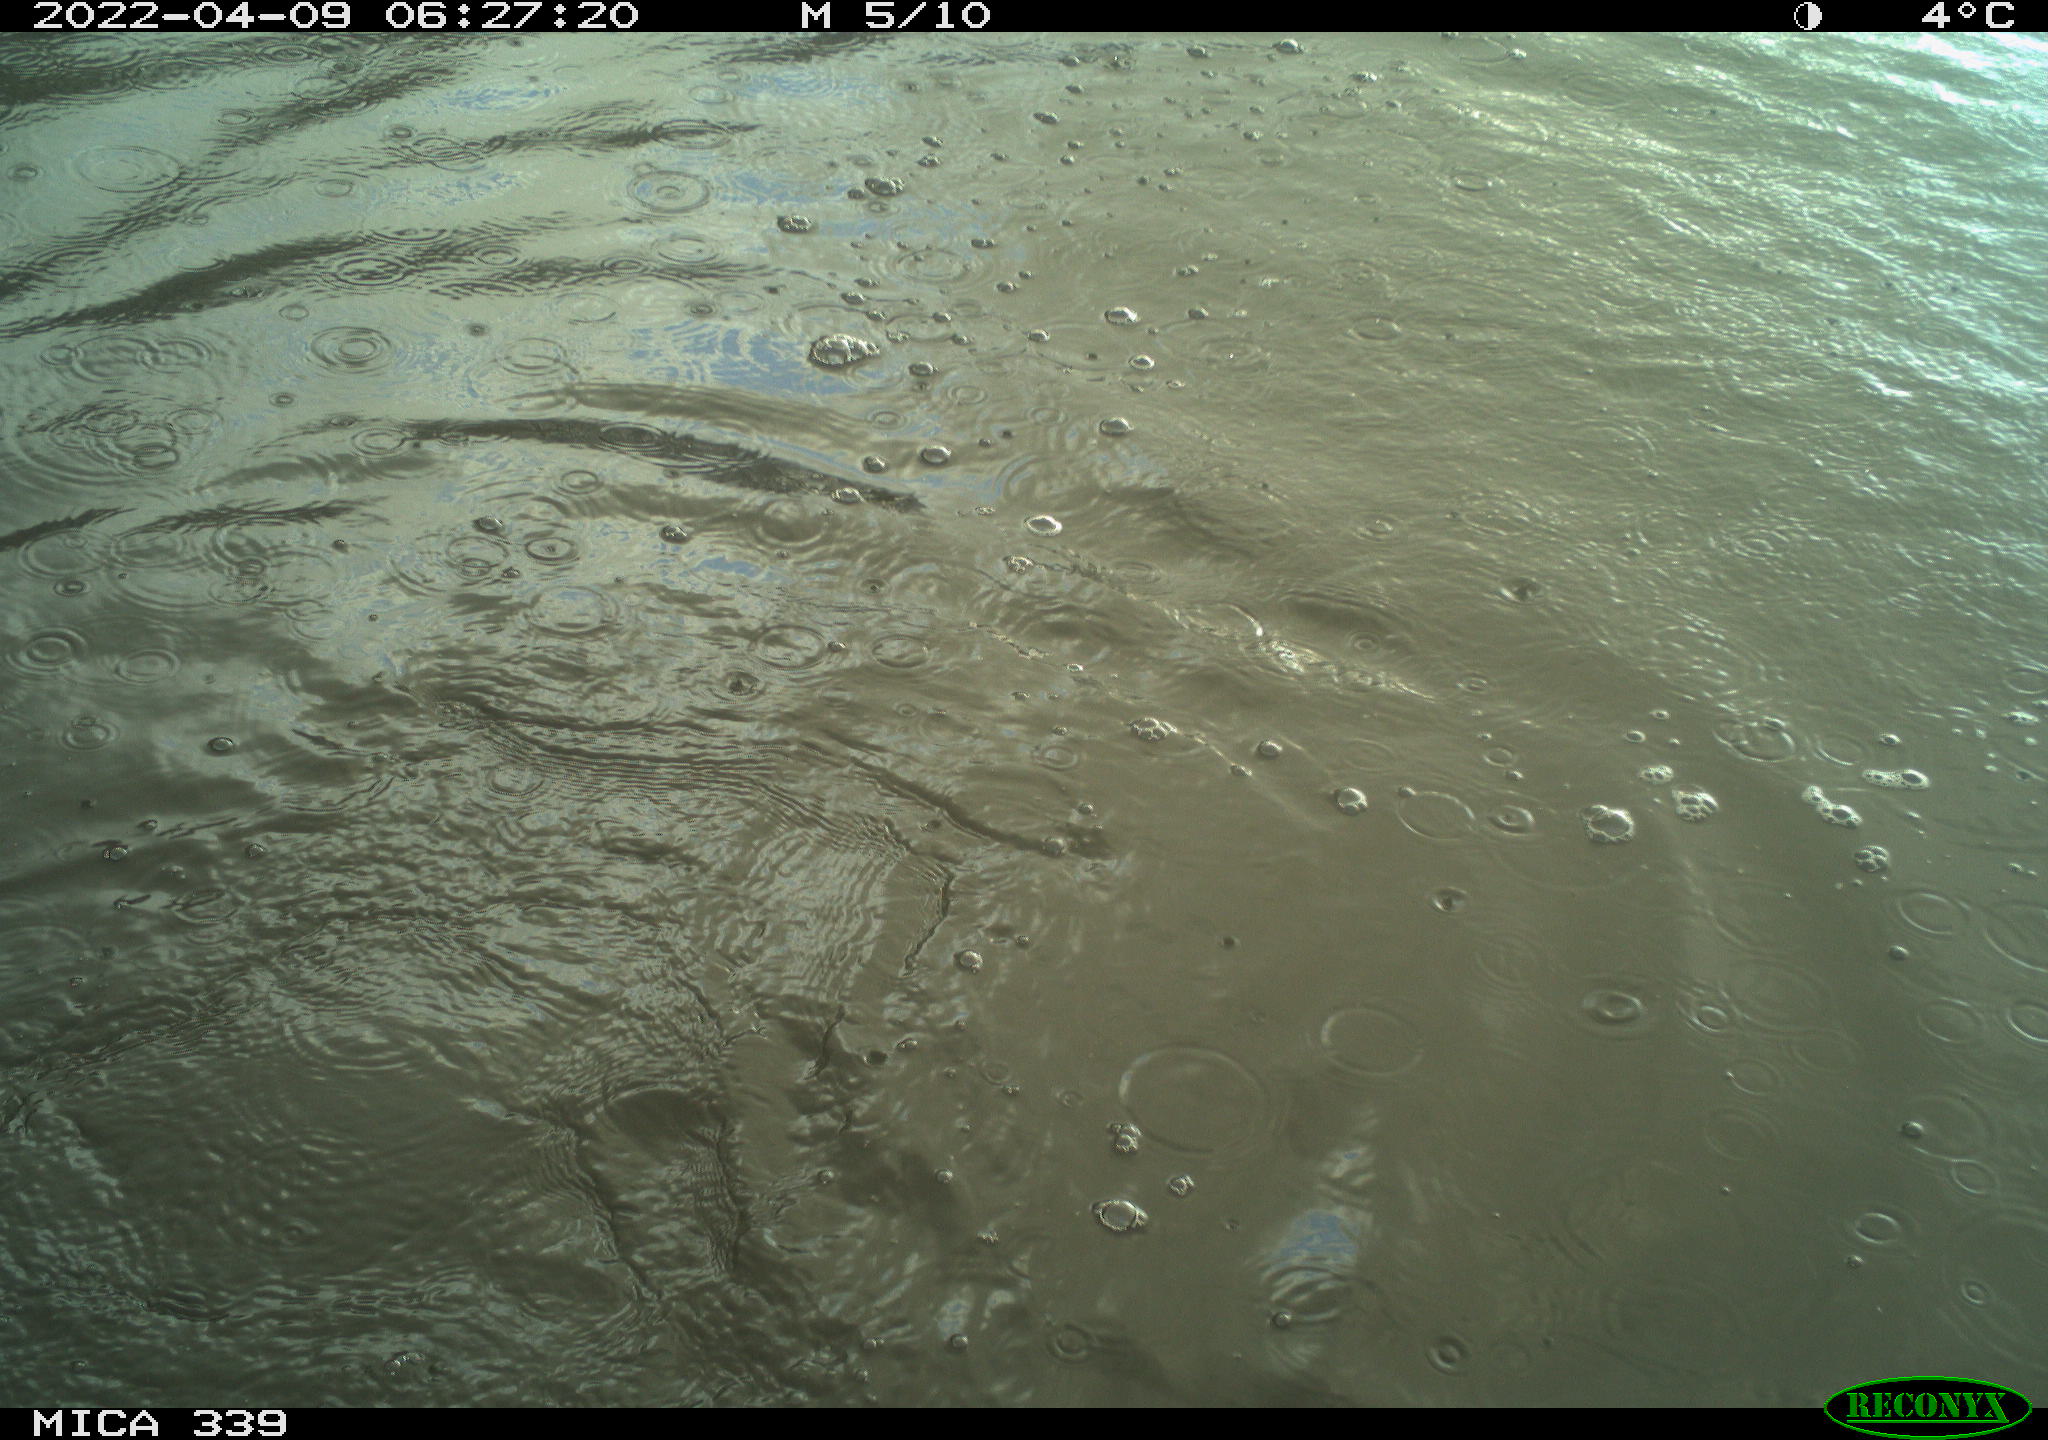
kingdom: Animalia
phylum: Chordata
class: Aves
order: Suliformes
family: Phalacrocoracidae
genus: Phalacrocorax
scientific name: Phalacrocorax carbo
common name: Great cormorant
